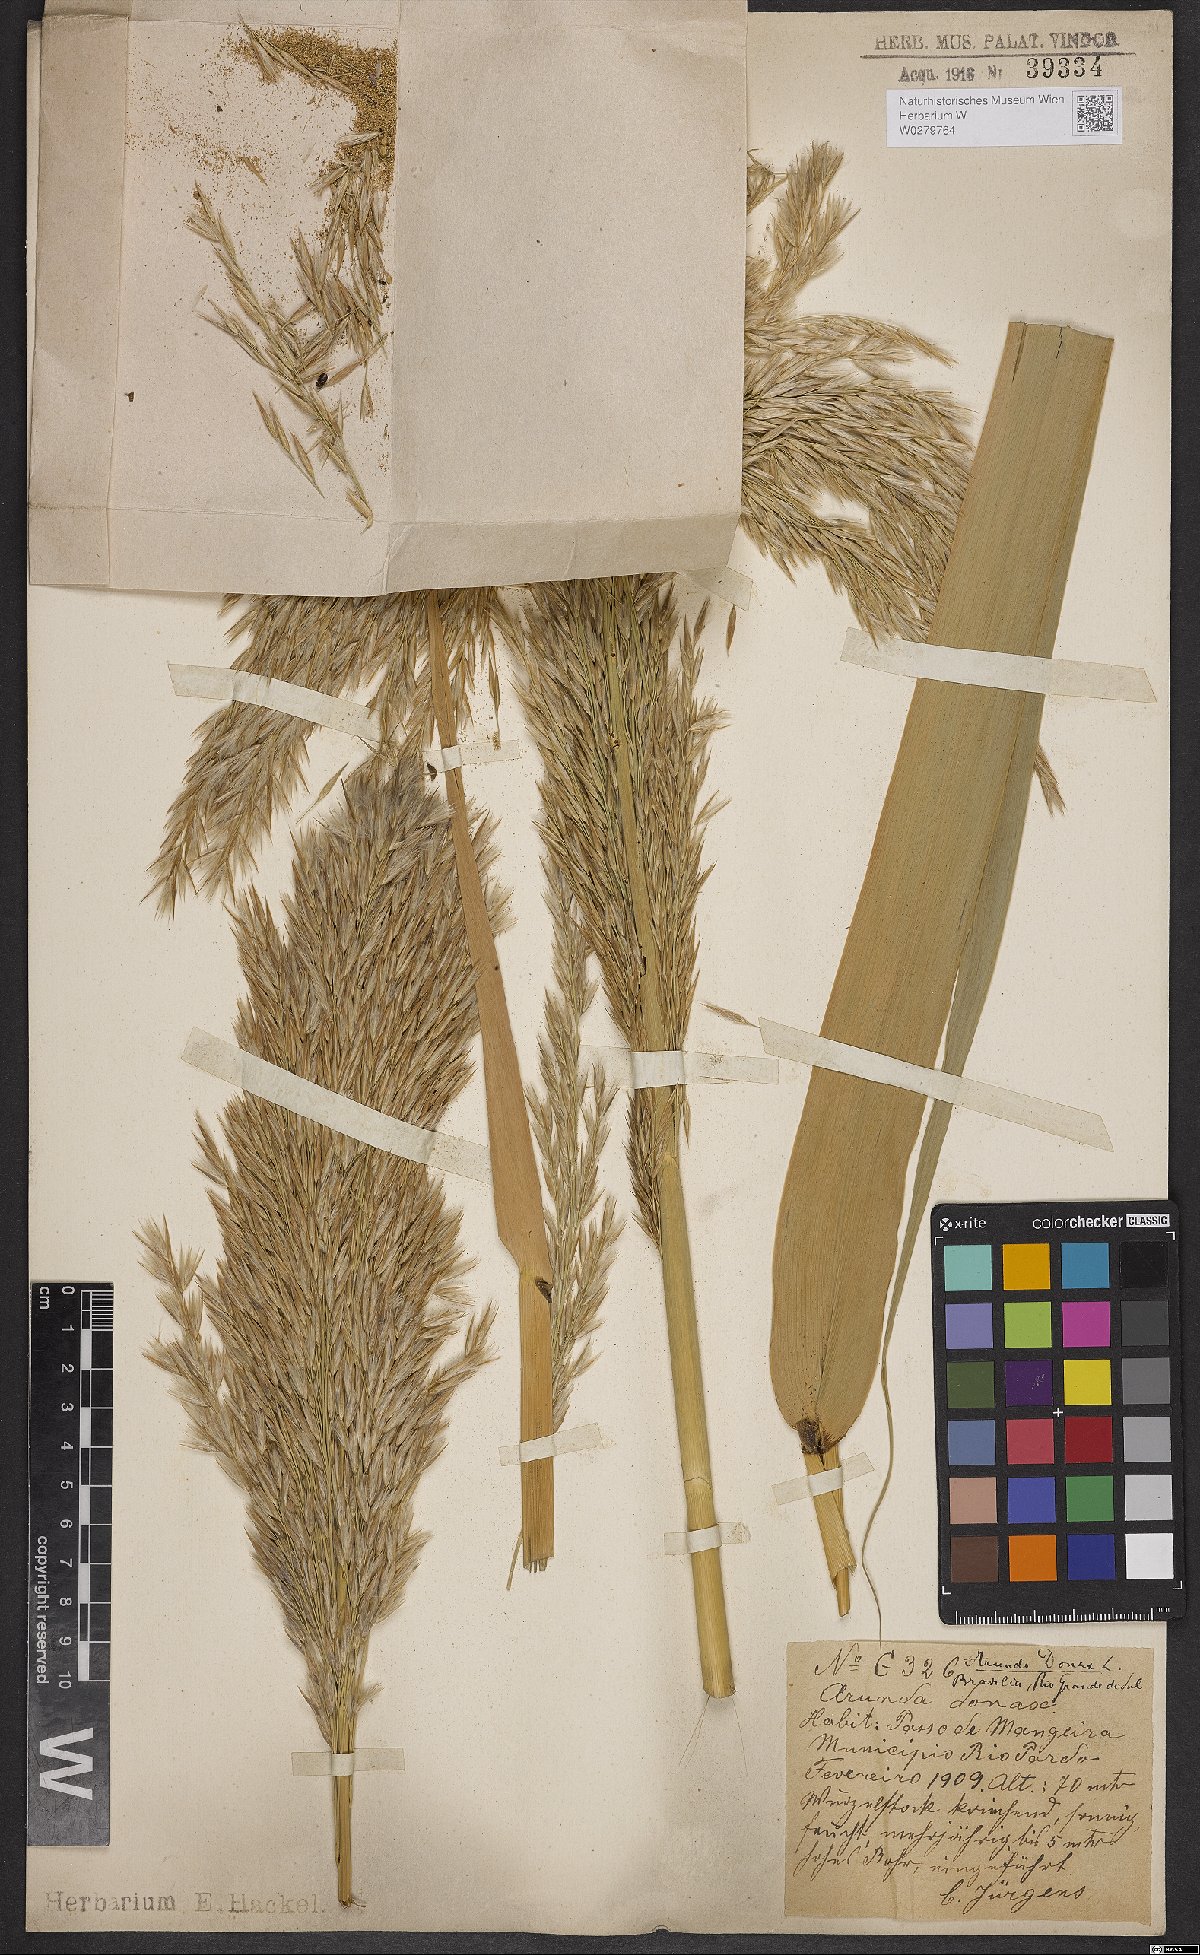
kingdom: Plantae
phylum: Tracheophyta
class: Liliopsida
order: Poales
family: Poaceae
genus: Arundinella
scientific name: Arundinella hispida
